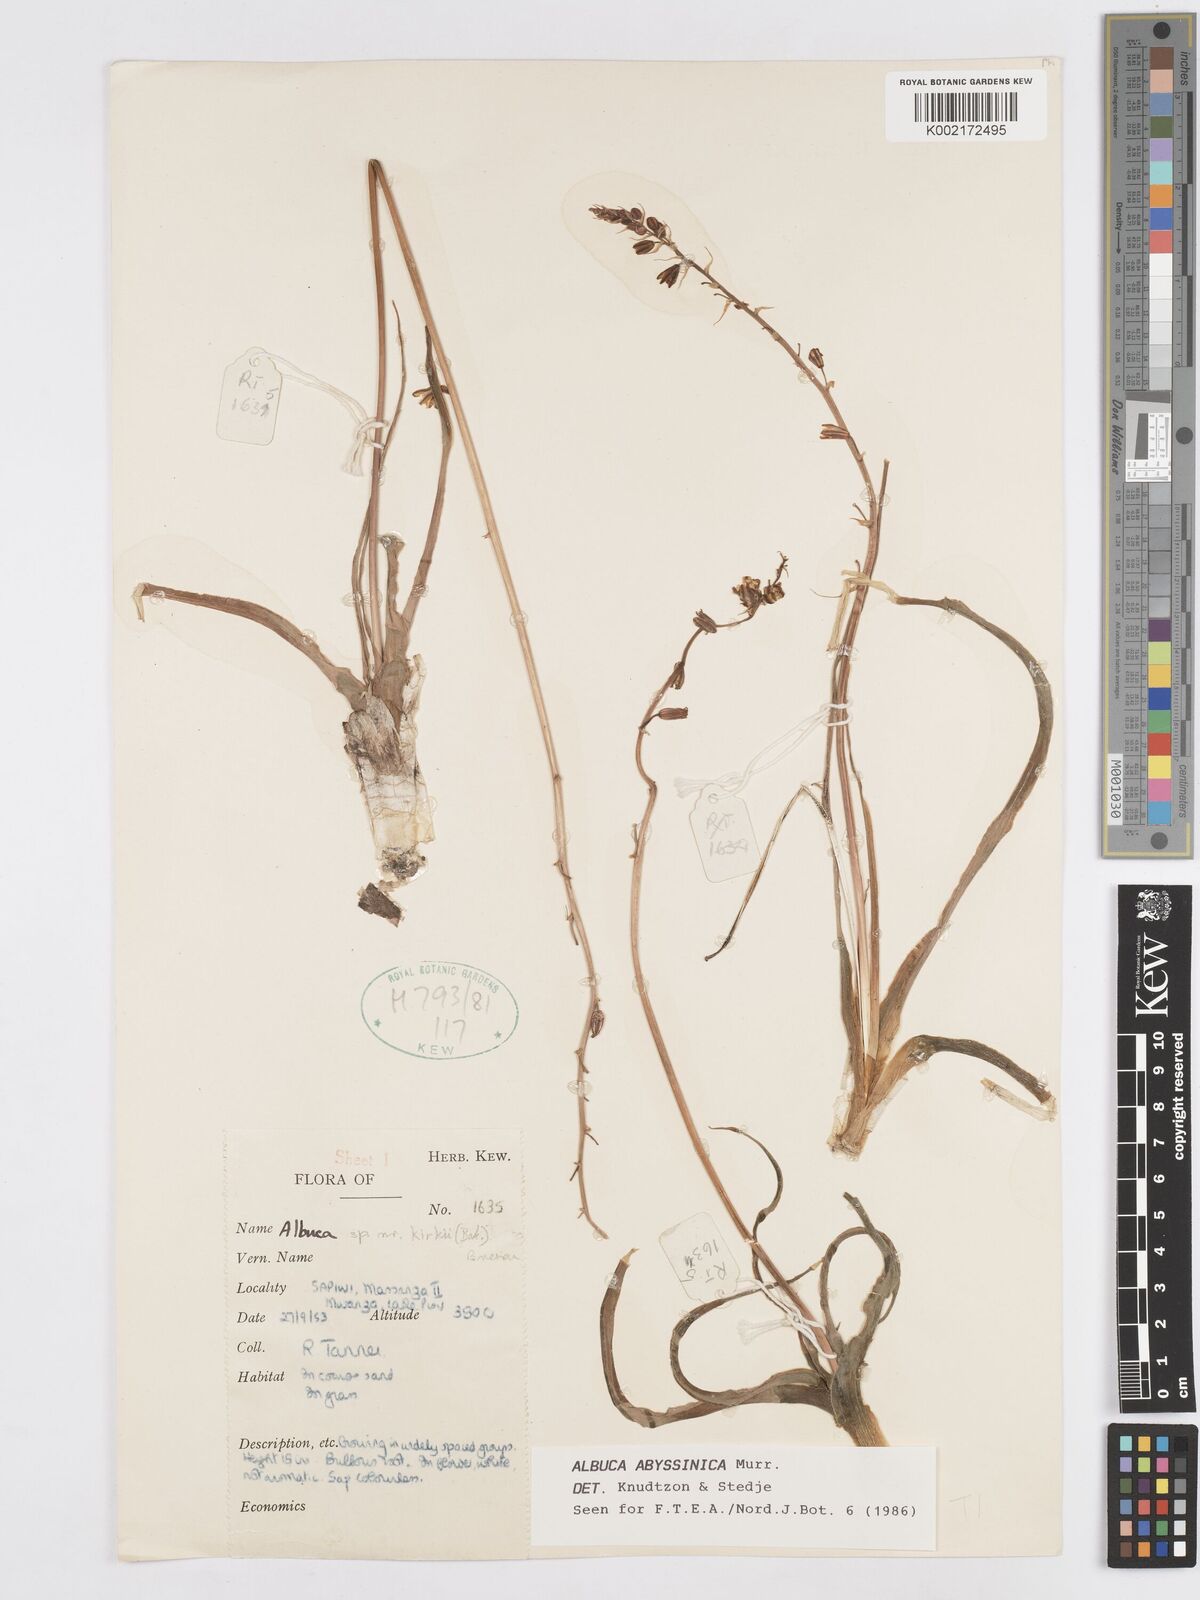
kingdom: Plantae
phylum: Tracheophyta
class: Liliopsida
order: Asparagales
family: Asparagaceae
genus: Albuca
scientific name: Albuca abyssinica
